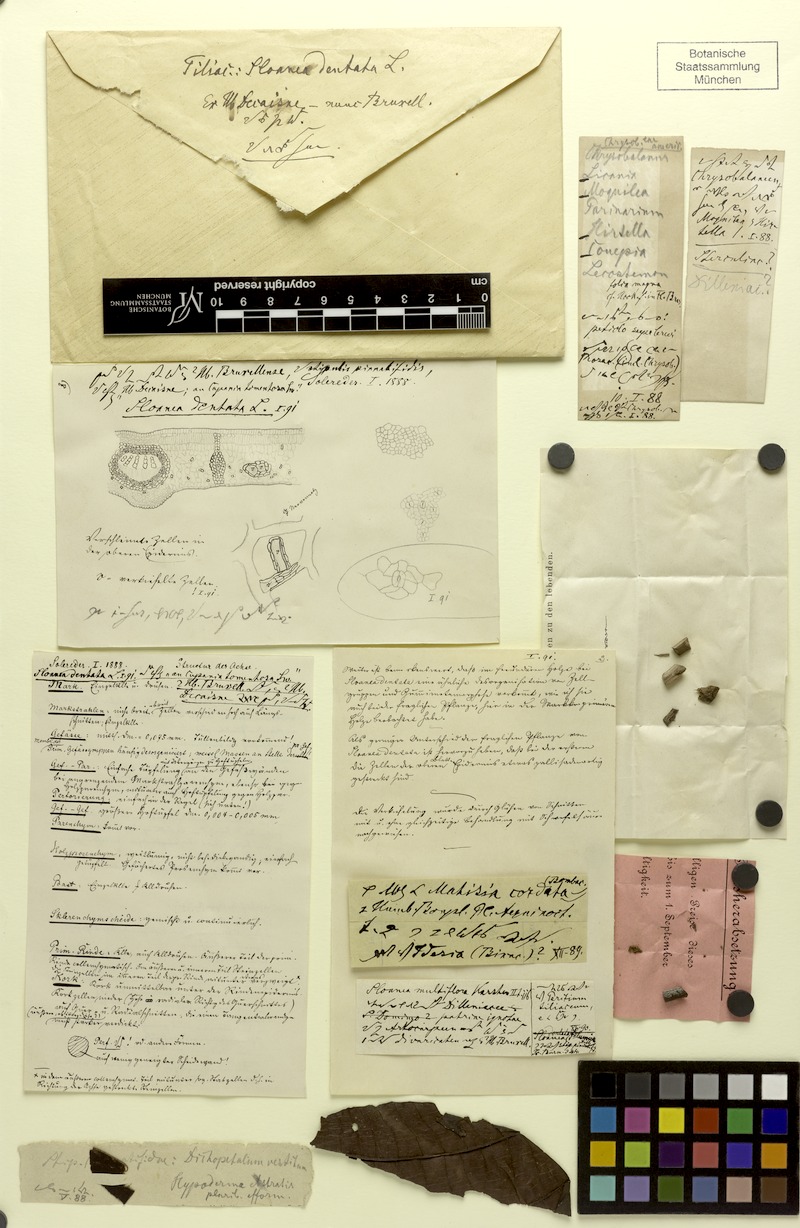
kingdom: Plantae
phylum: Tracheophyta
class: Magnoliopsida
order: Oxalidales
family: Elaeocarpaceae
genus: Sloanea
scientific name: Sloanea dentata
